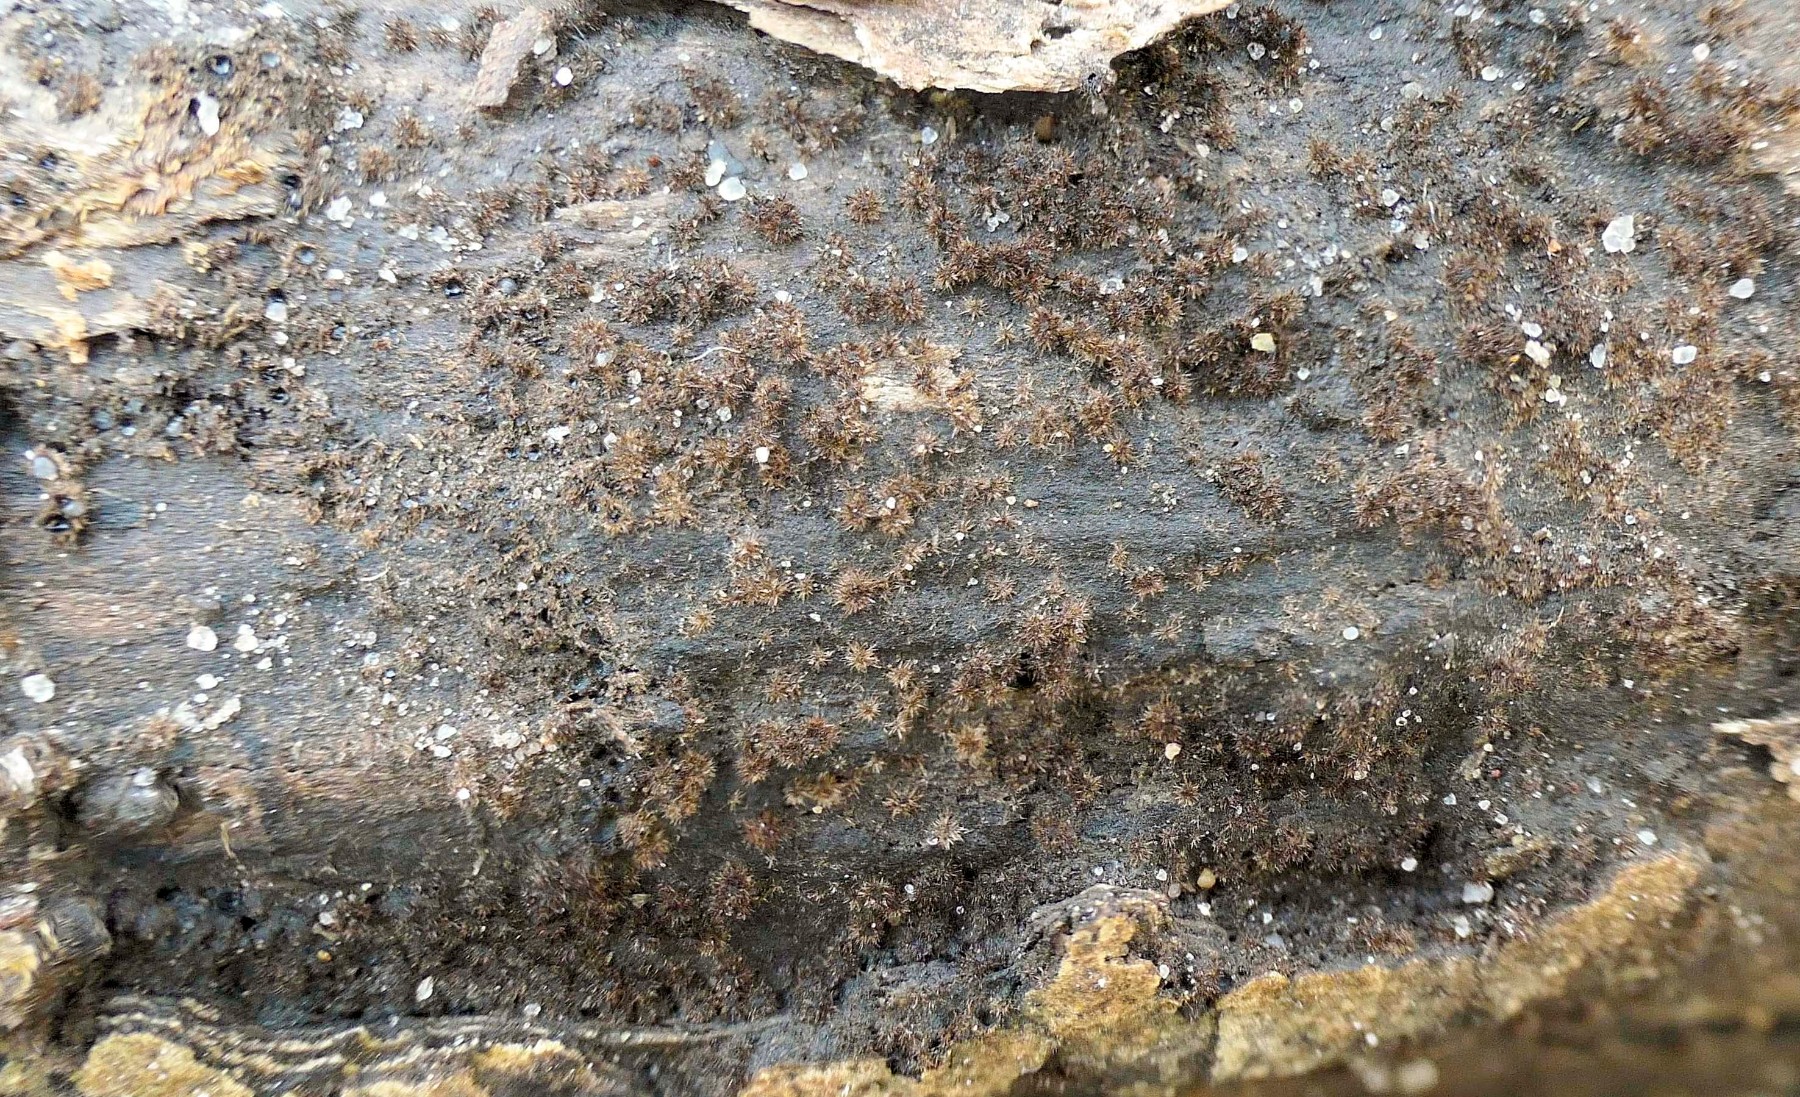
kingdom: Fungi
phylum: Ascomycota
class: Sordariomycetes
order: Sordariales
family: Helminthosphaeriaceae
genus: Echinosphaeria
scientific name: Echinosphaeria canescens
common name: brun børstekerne
